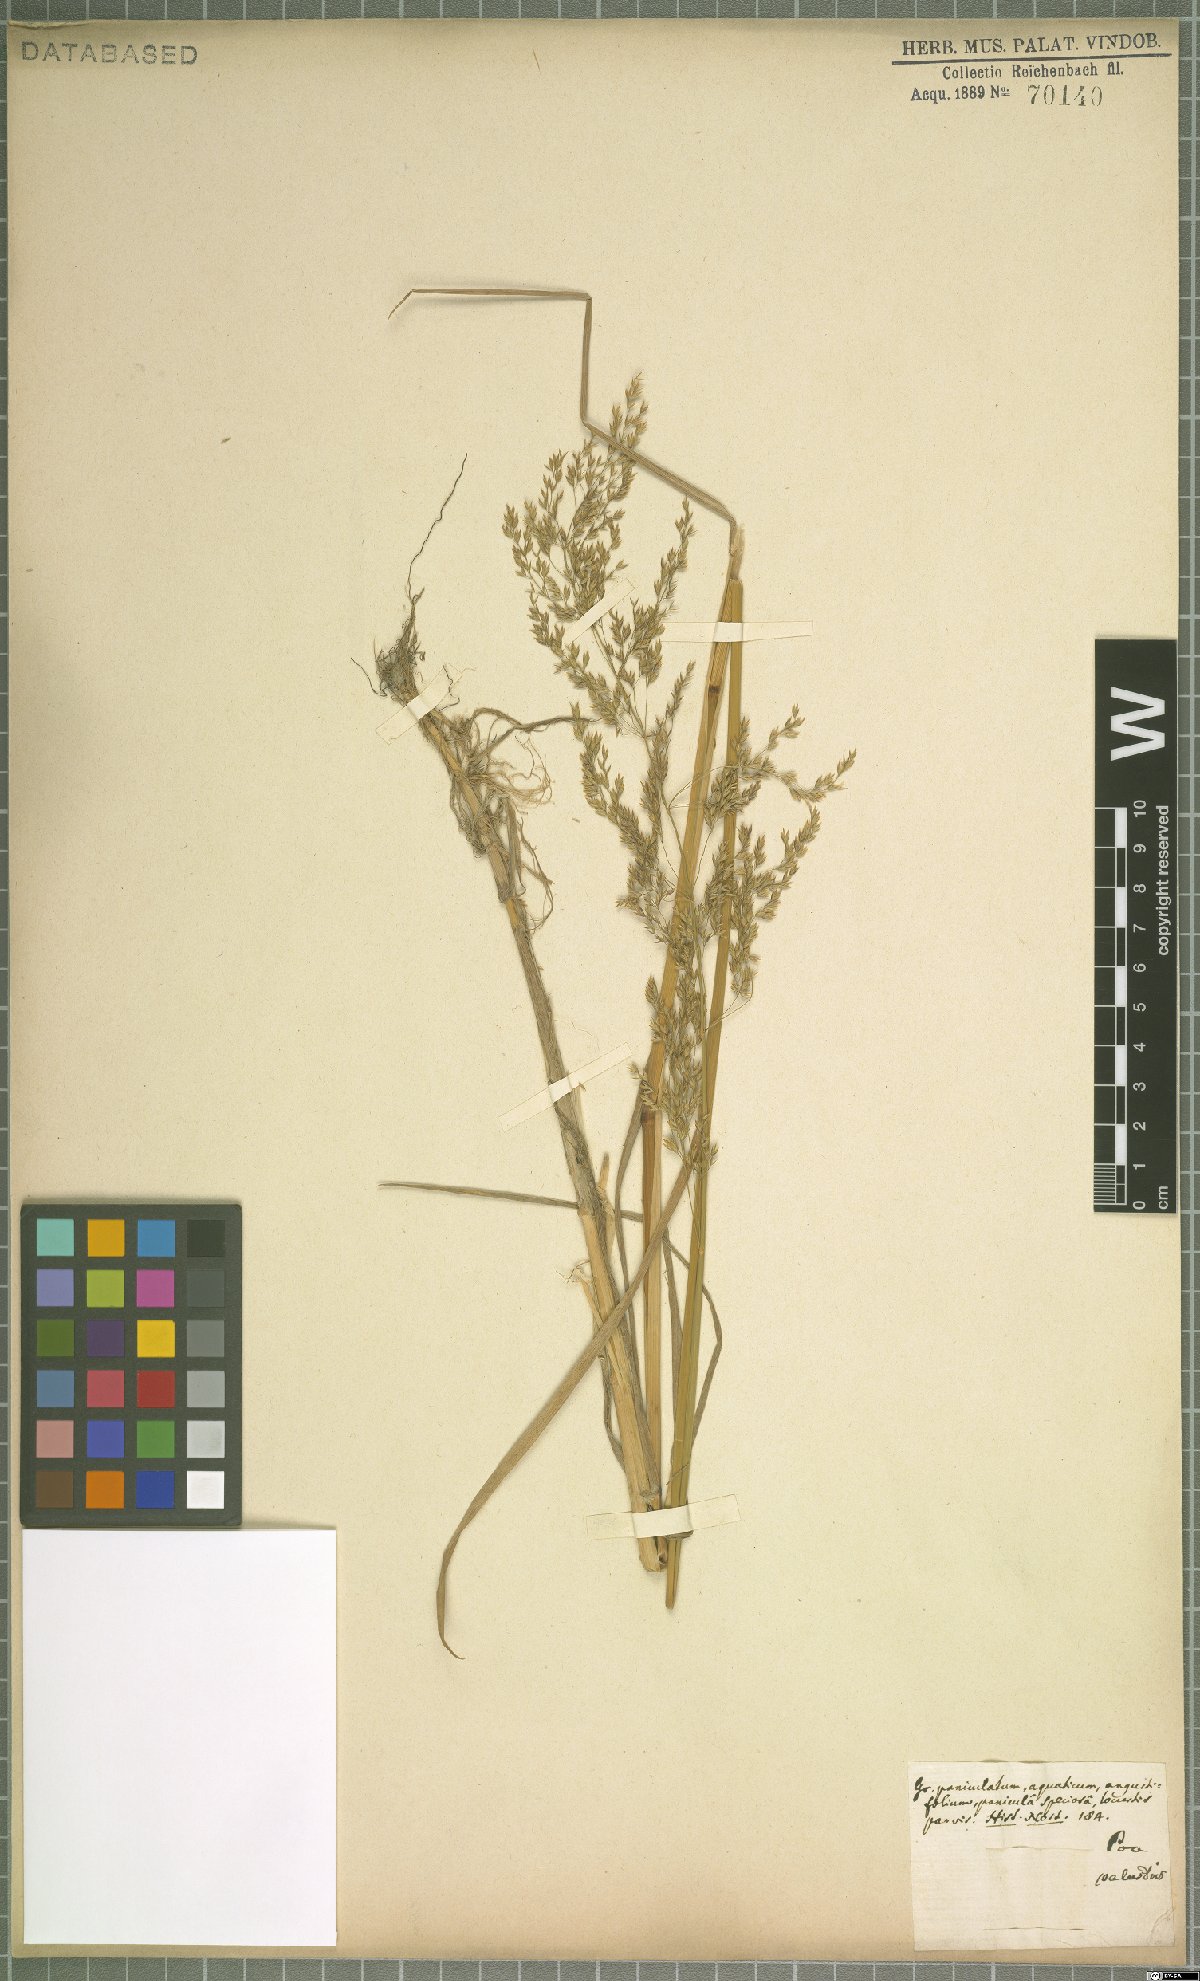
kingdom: Plantae
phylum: Tracheophyta
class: Liliopsida
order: Poales
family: Poaceae
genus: Poa
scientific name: Poa palustris
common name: Swamp meadow-grass
